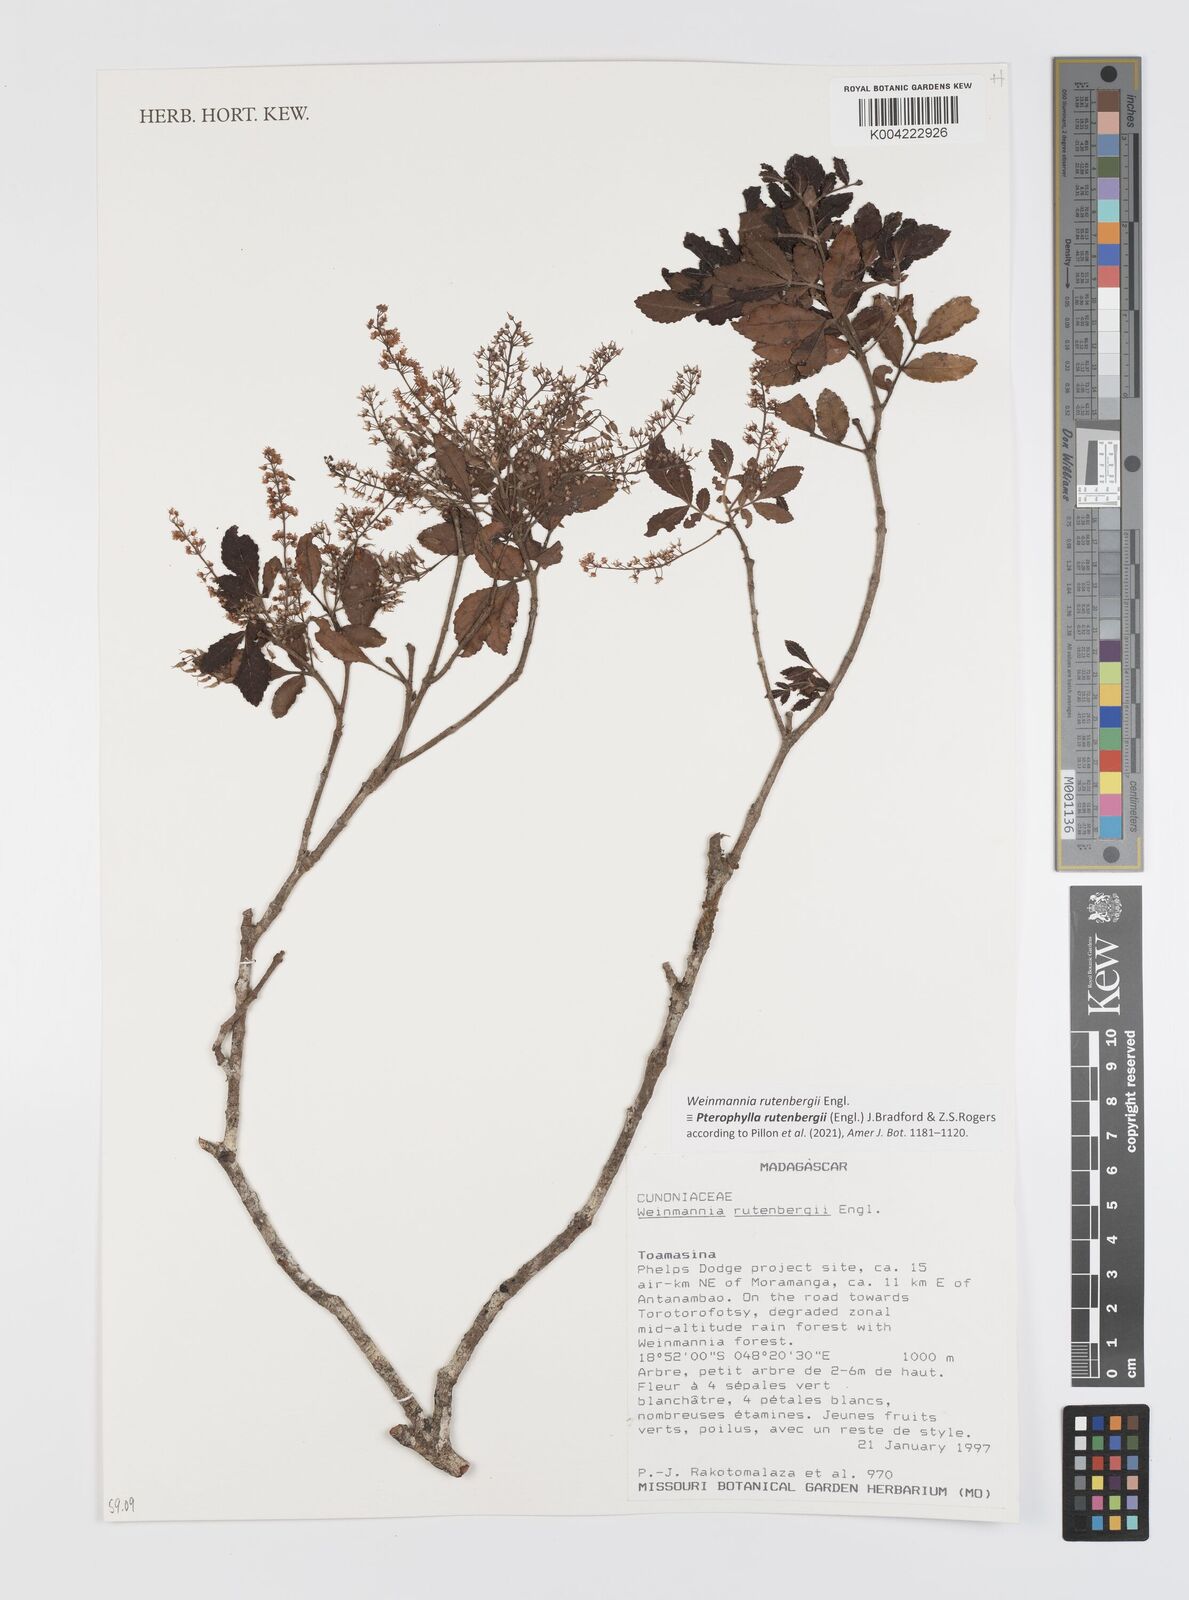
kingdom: Plantae
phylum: Tracheophyta
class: Magnoliopsida
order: Oxalidales
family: Cunoniaceae
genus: Pterophylla
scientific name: Pterophylla rutenbergii
